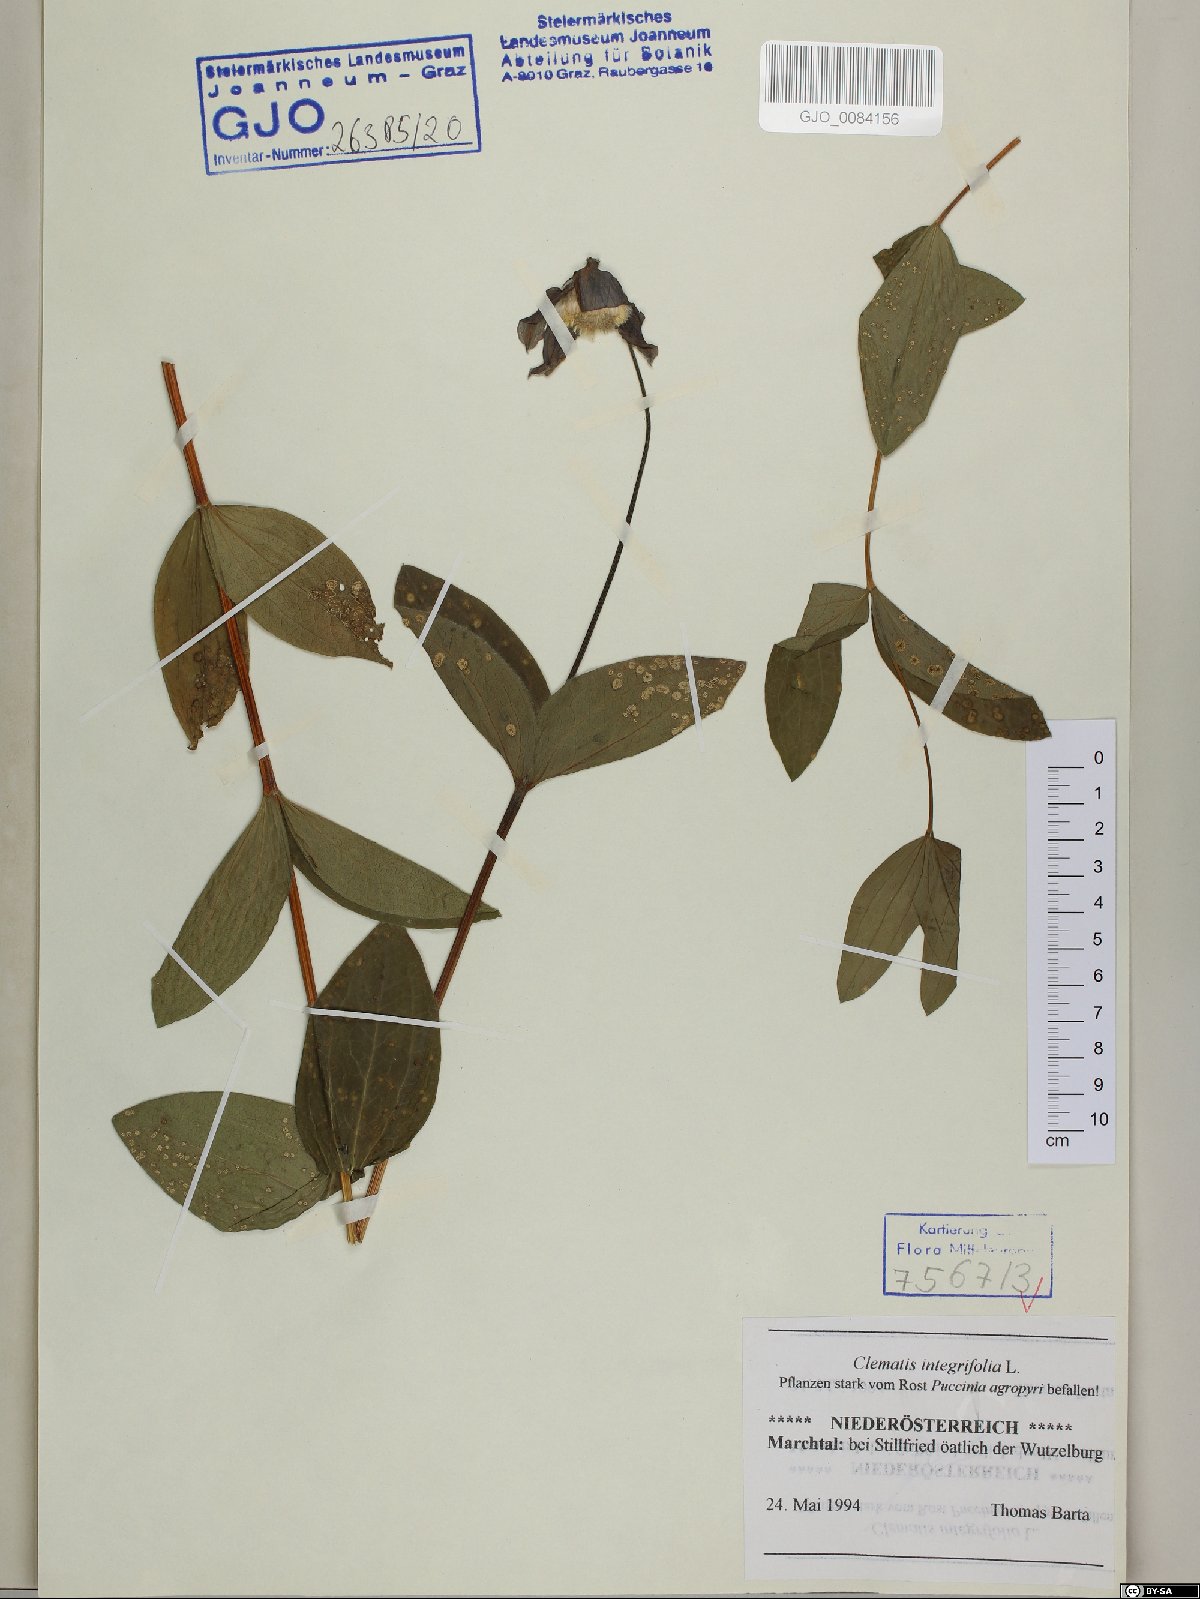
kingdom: Plantae
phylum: Tracheophyta
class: Magnoliopsida
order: Ranunculales
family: Ranunculaceae
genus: Clematis
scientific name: Clematis integrifolia
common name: Solitary clematis
